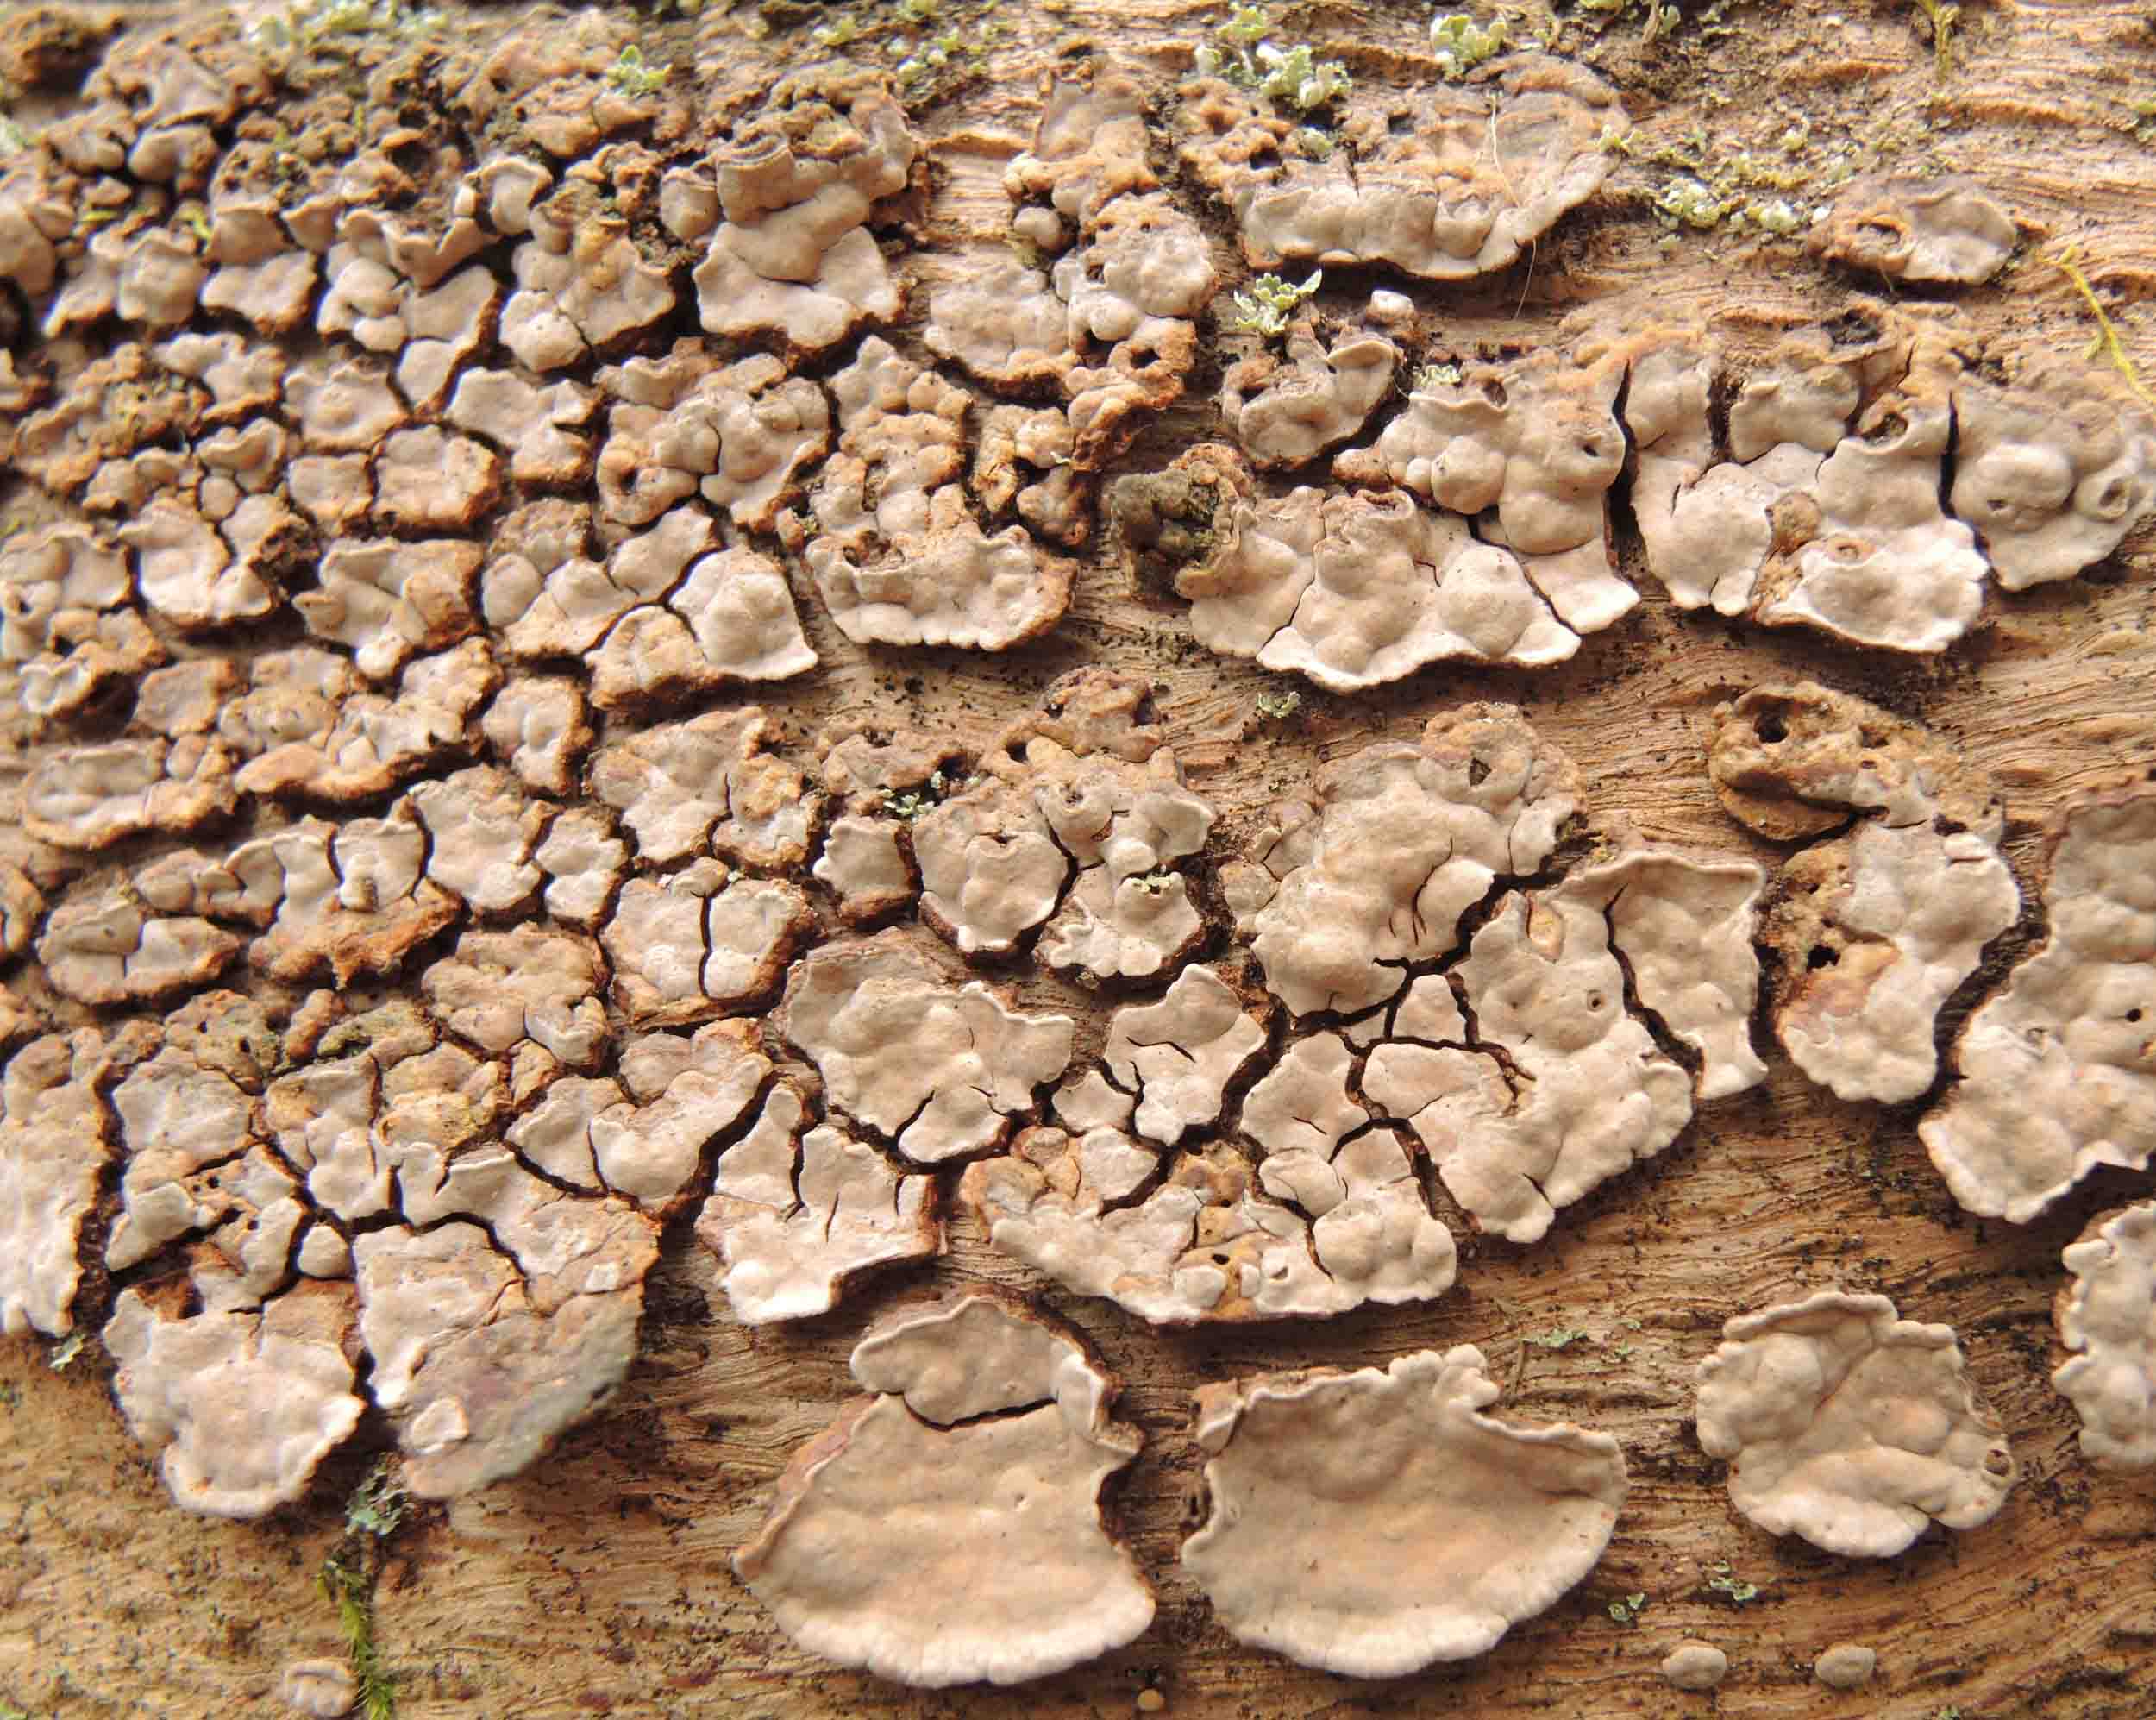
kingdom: Fungi
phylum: Basidiomycota
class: Agaricomycetes
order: Russulales
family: Stereaceae
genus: Xylobolus
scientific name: Xylobolus frustulatus
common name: mønster-lædersvamp
